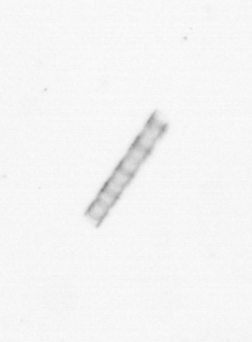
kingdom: Chromista
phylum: Ochrophyta
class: Bacillariophyceae
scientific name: Bacillariophyceae
